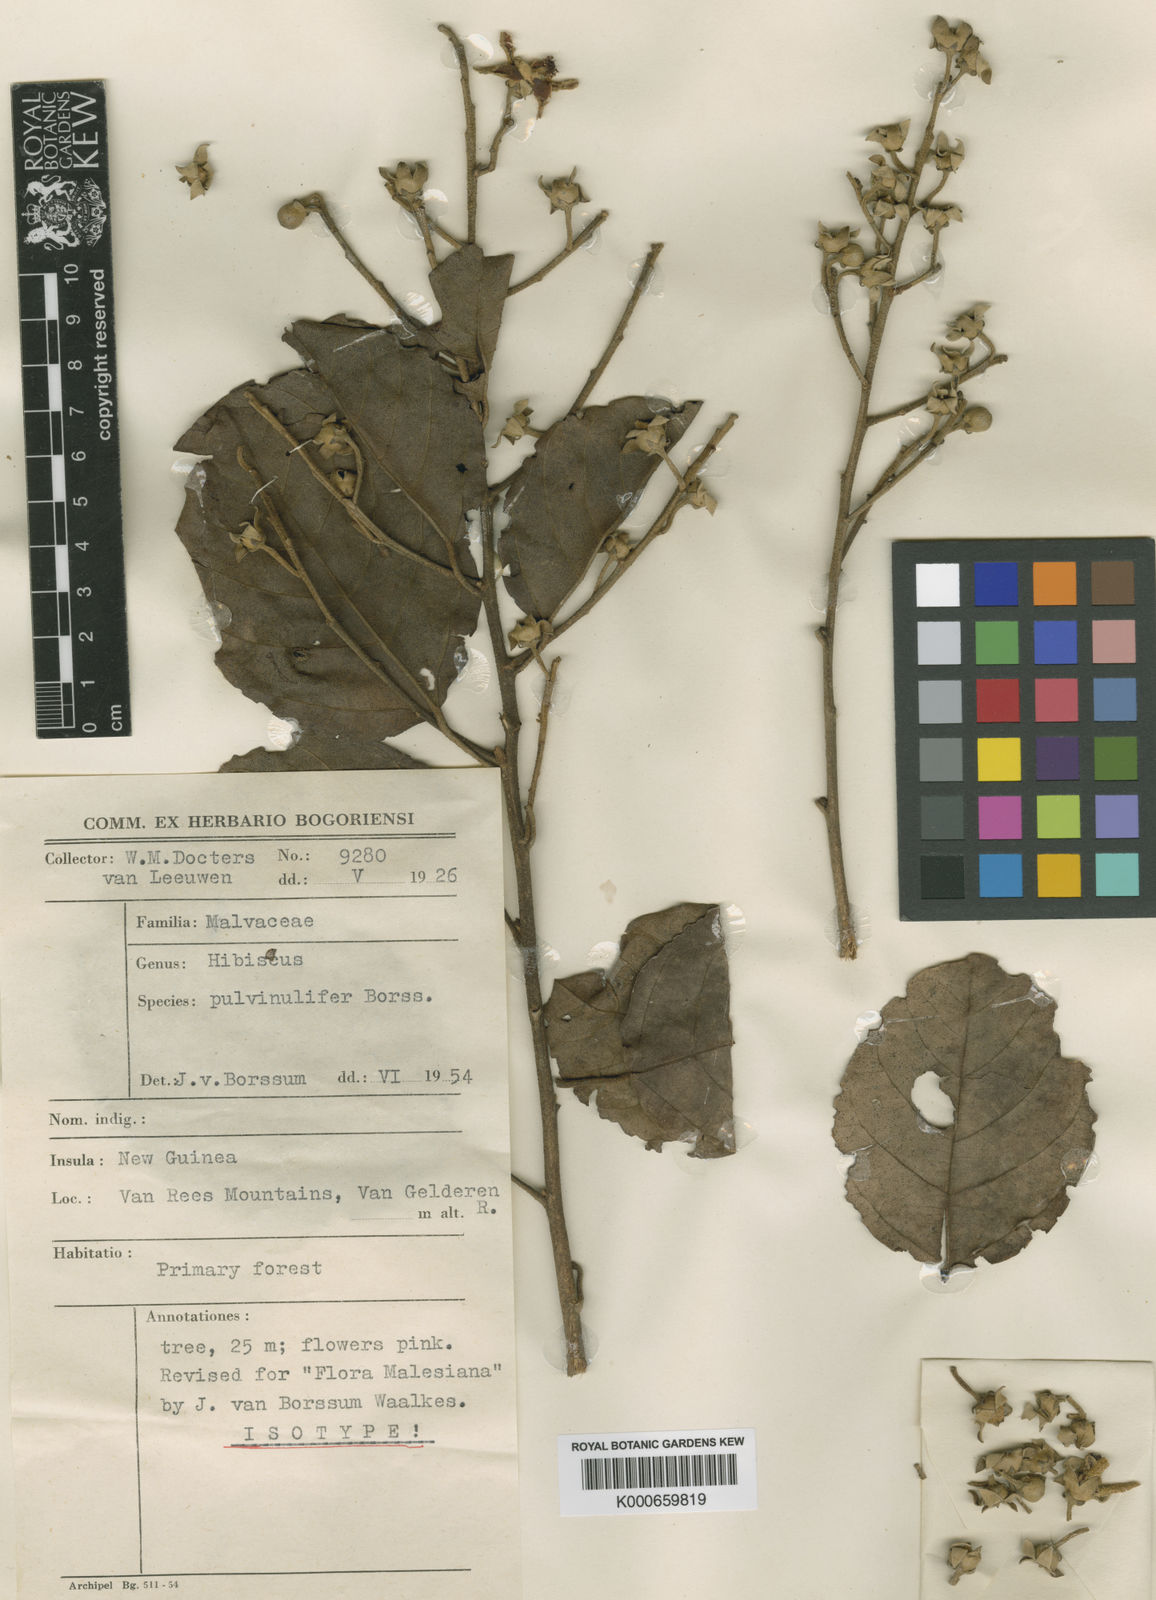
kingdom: Plantae
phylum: Tracheophyta
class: Magnoliopsida
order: Malvales
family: Malvaceae
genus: Hibiscus
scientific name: Hibiscus pulvinulifer
